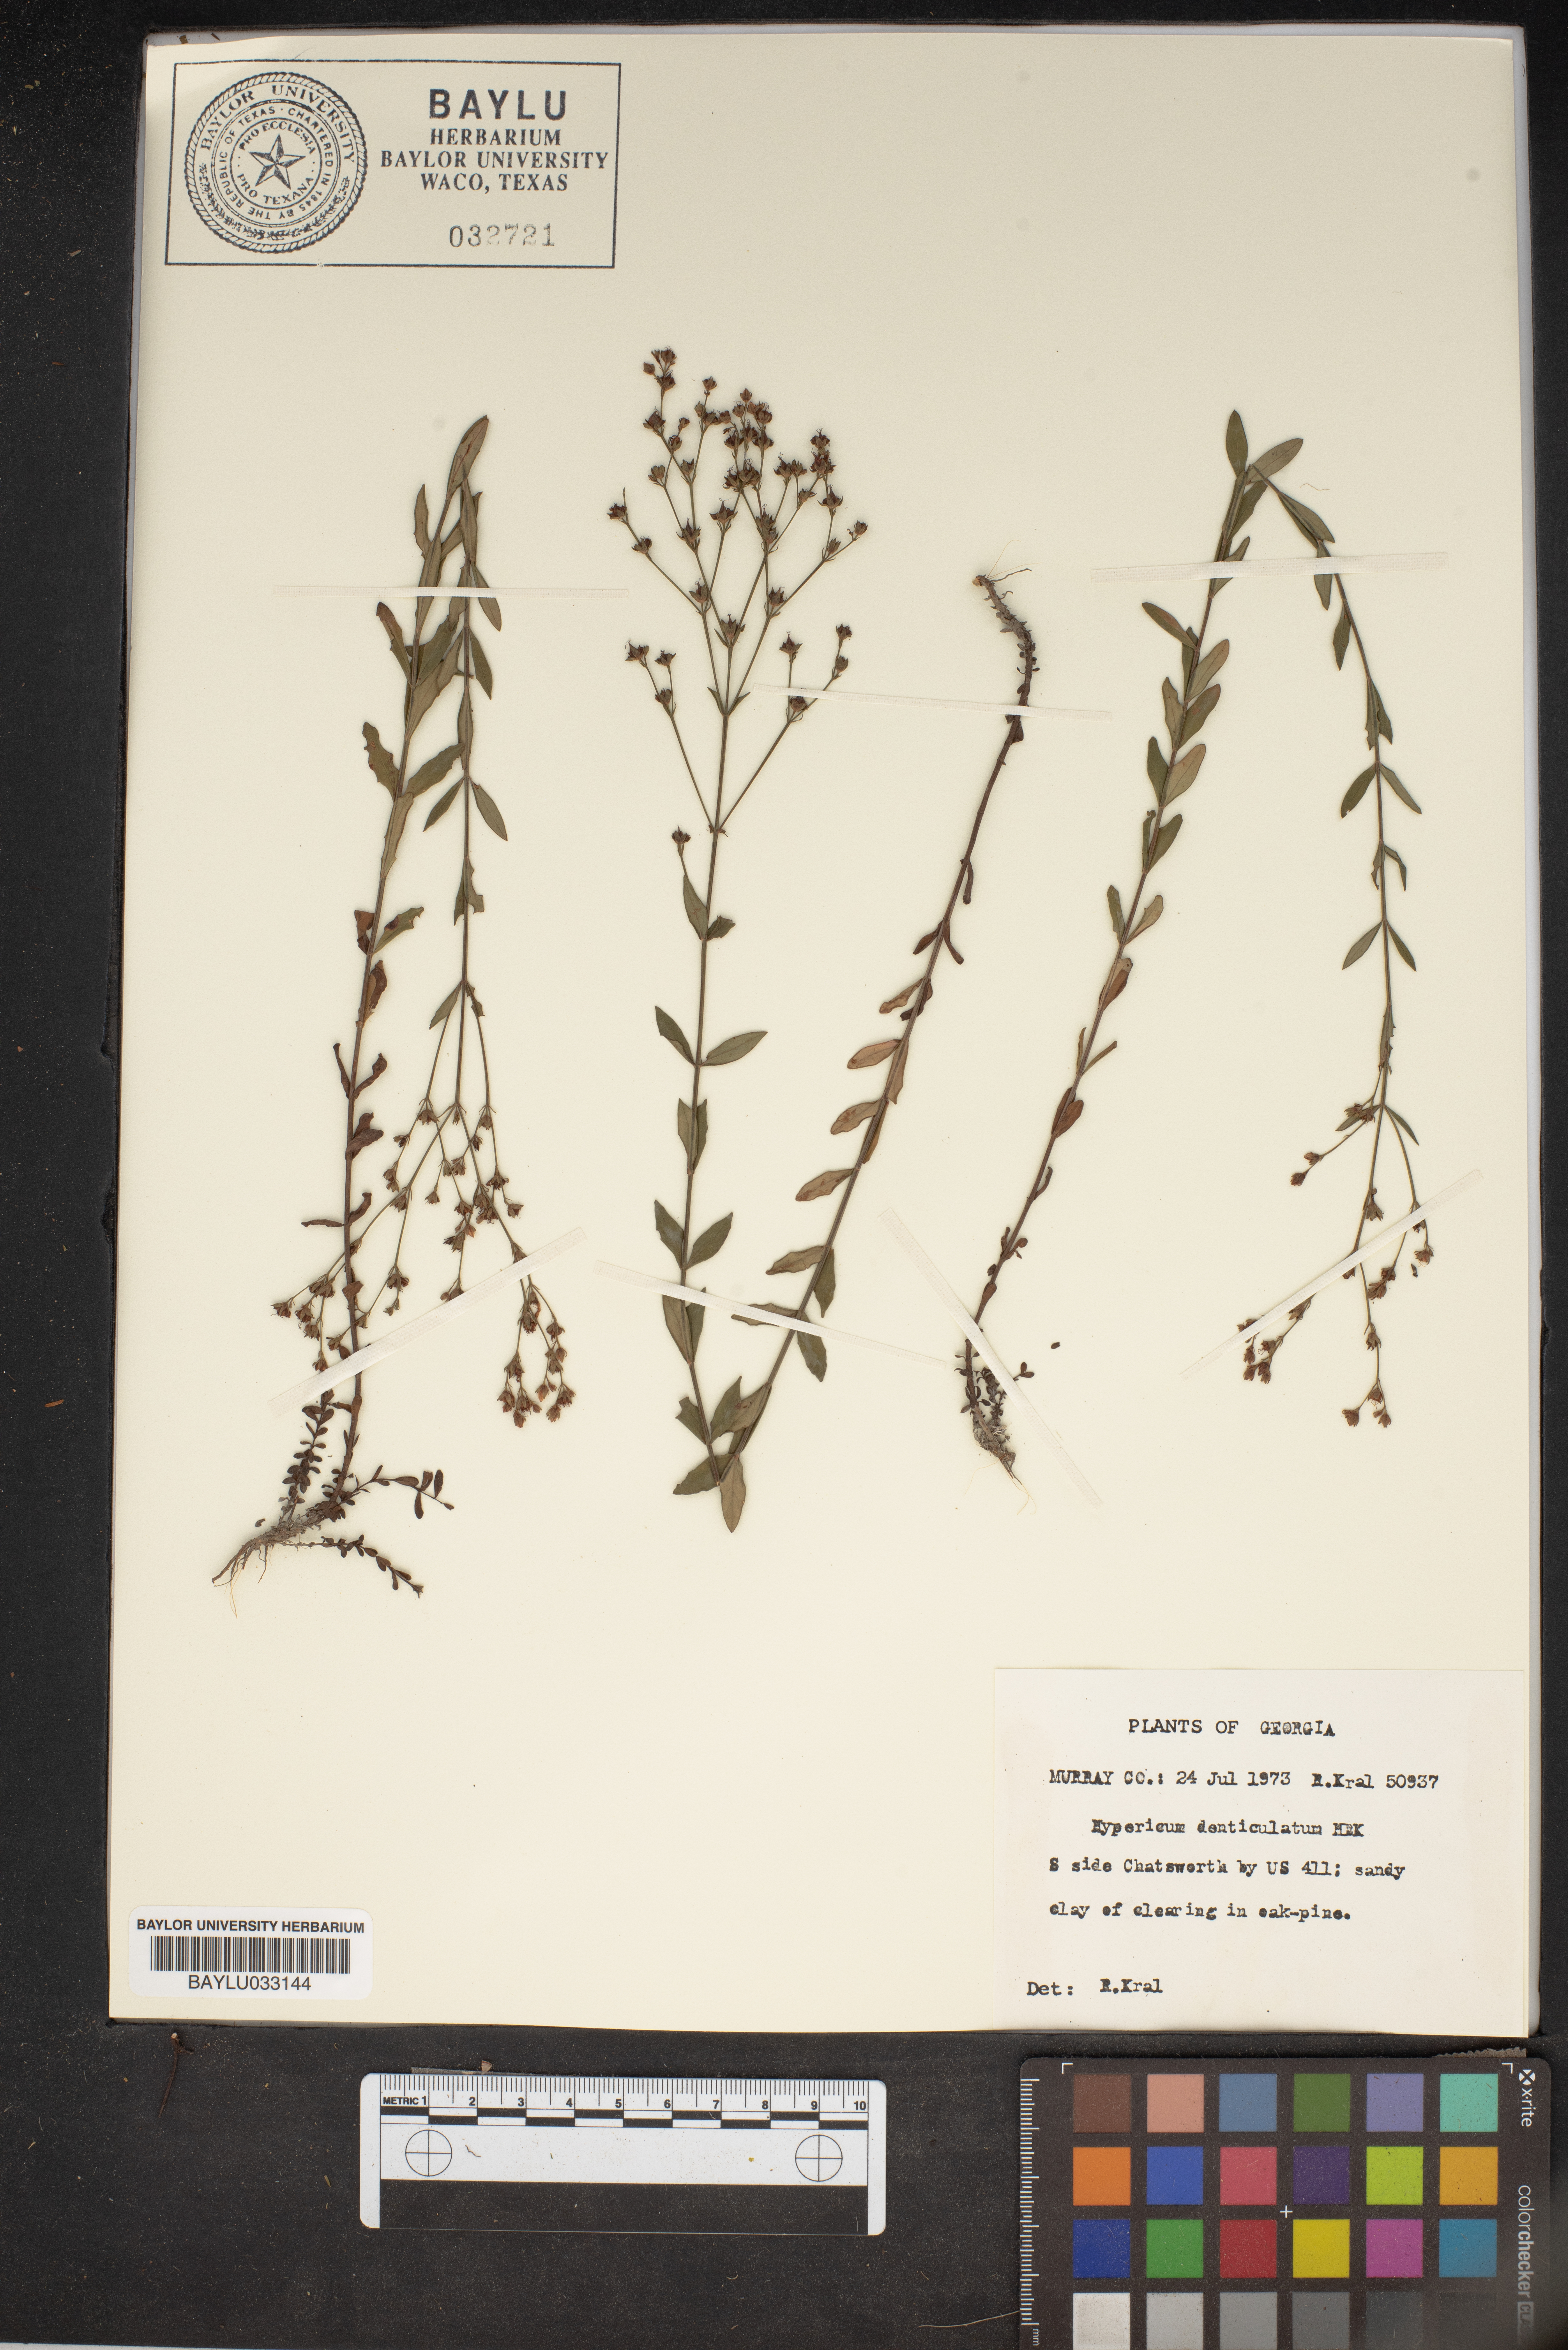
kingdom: Plantae
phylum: Tracheophyta
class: Magnoliopsida
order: Malpighiales
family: Hypericaceae
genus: Hypericum
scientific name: Hypericum denticulatum
